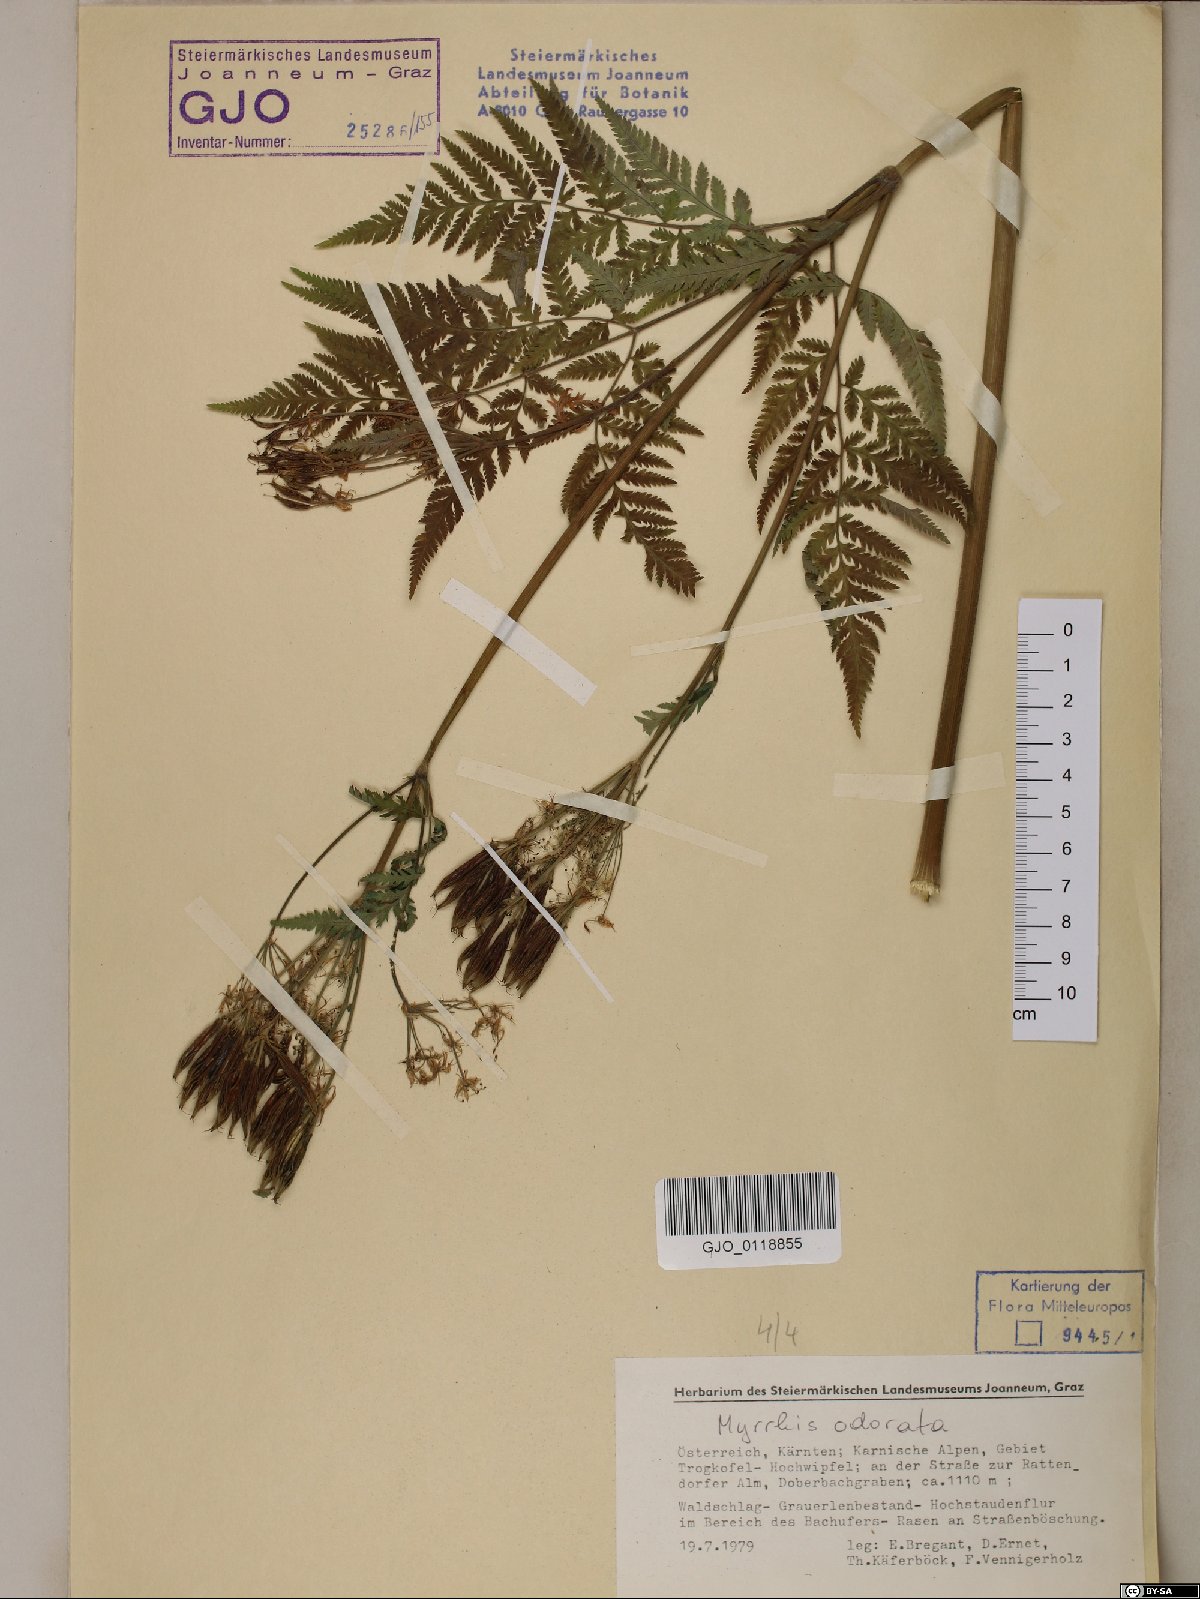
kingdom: Plantae
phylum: Tracheophyta
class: Magnoliopsida
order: Apiales
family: Apiaceae
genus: Myrrhis
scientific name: Myrrhis odorata
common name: Sweet cicely
